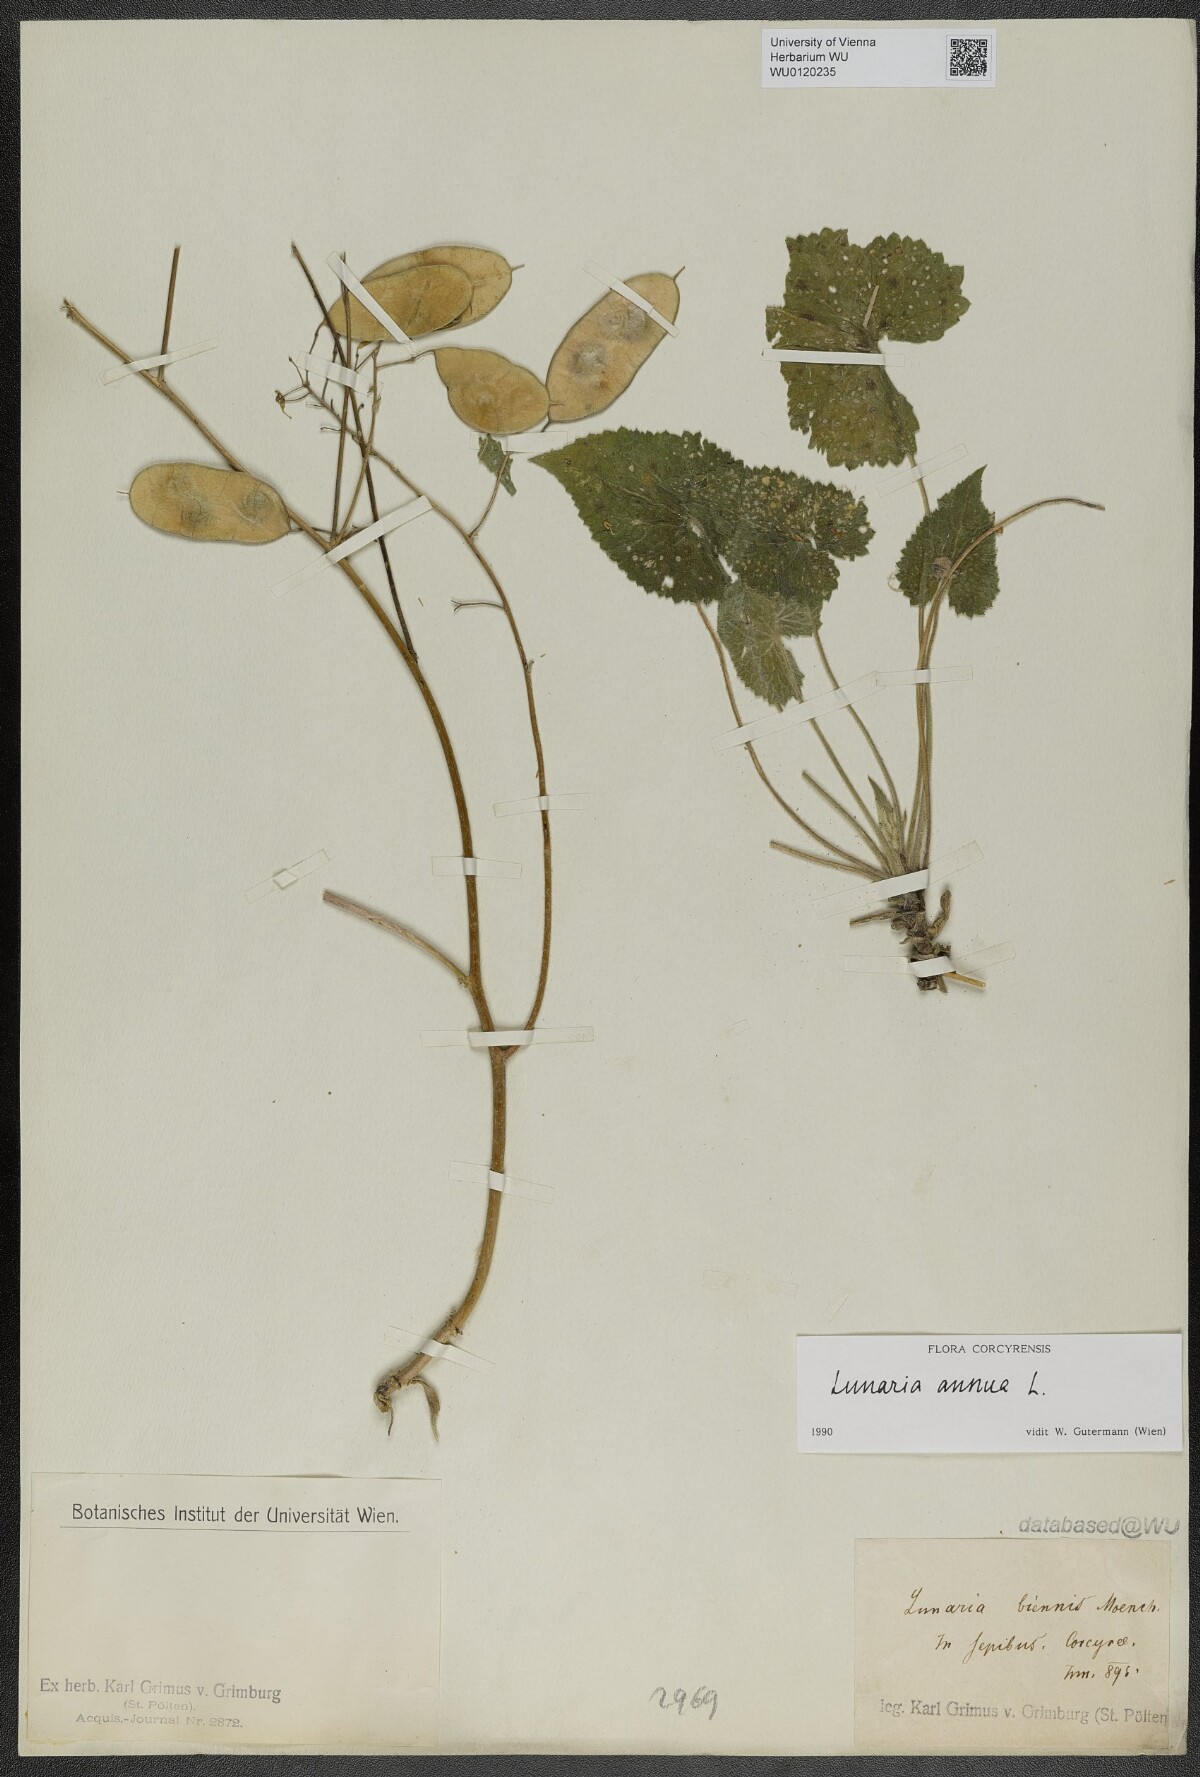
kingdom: Plantae
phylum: Tracheophyta
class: Magnoliopsida
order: Brassicales
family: Brassicaceae
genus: Lunaria
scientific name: Lunaria annua
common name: Honesty
